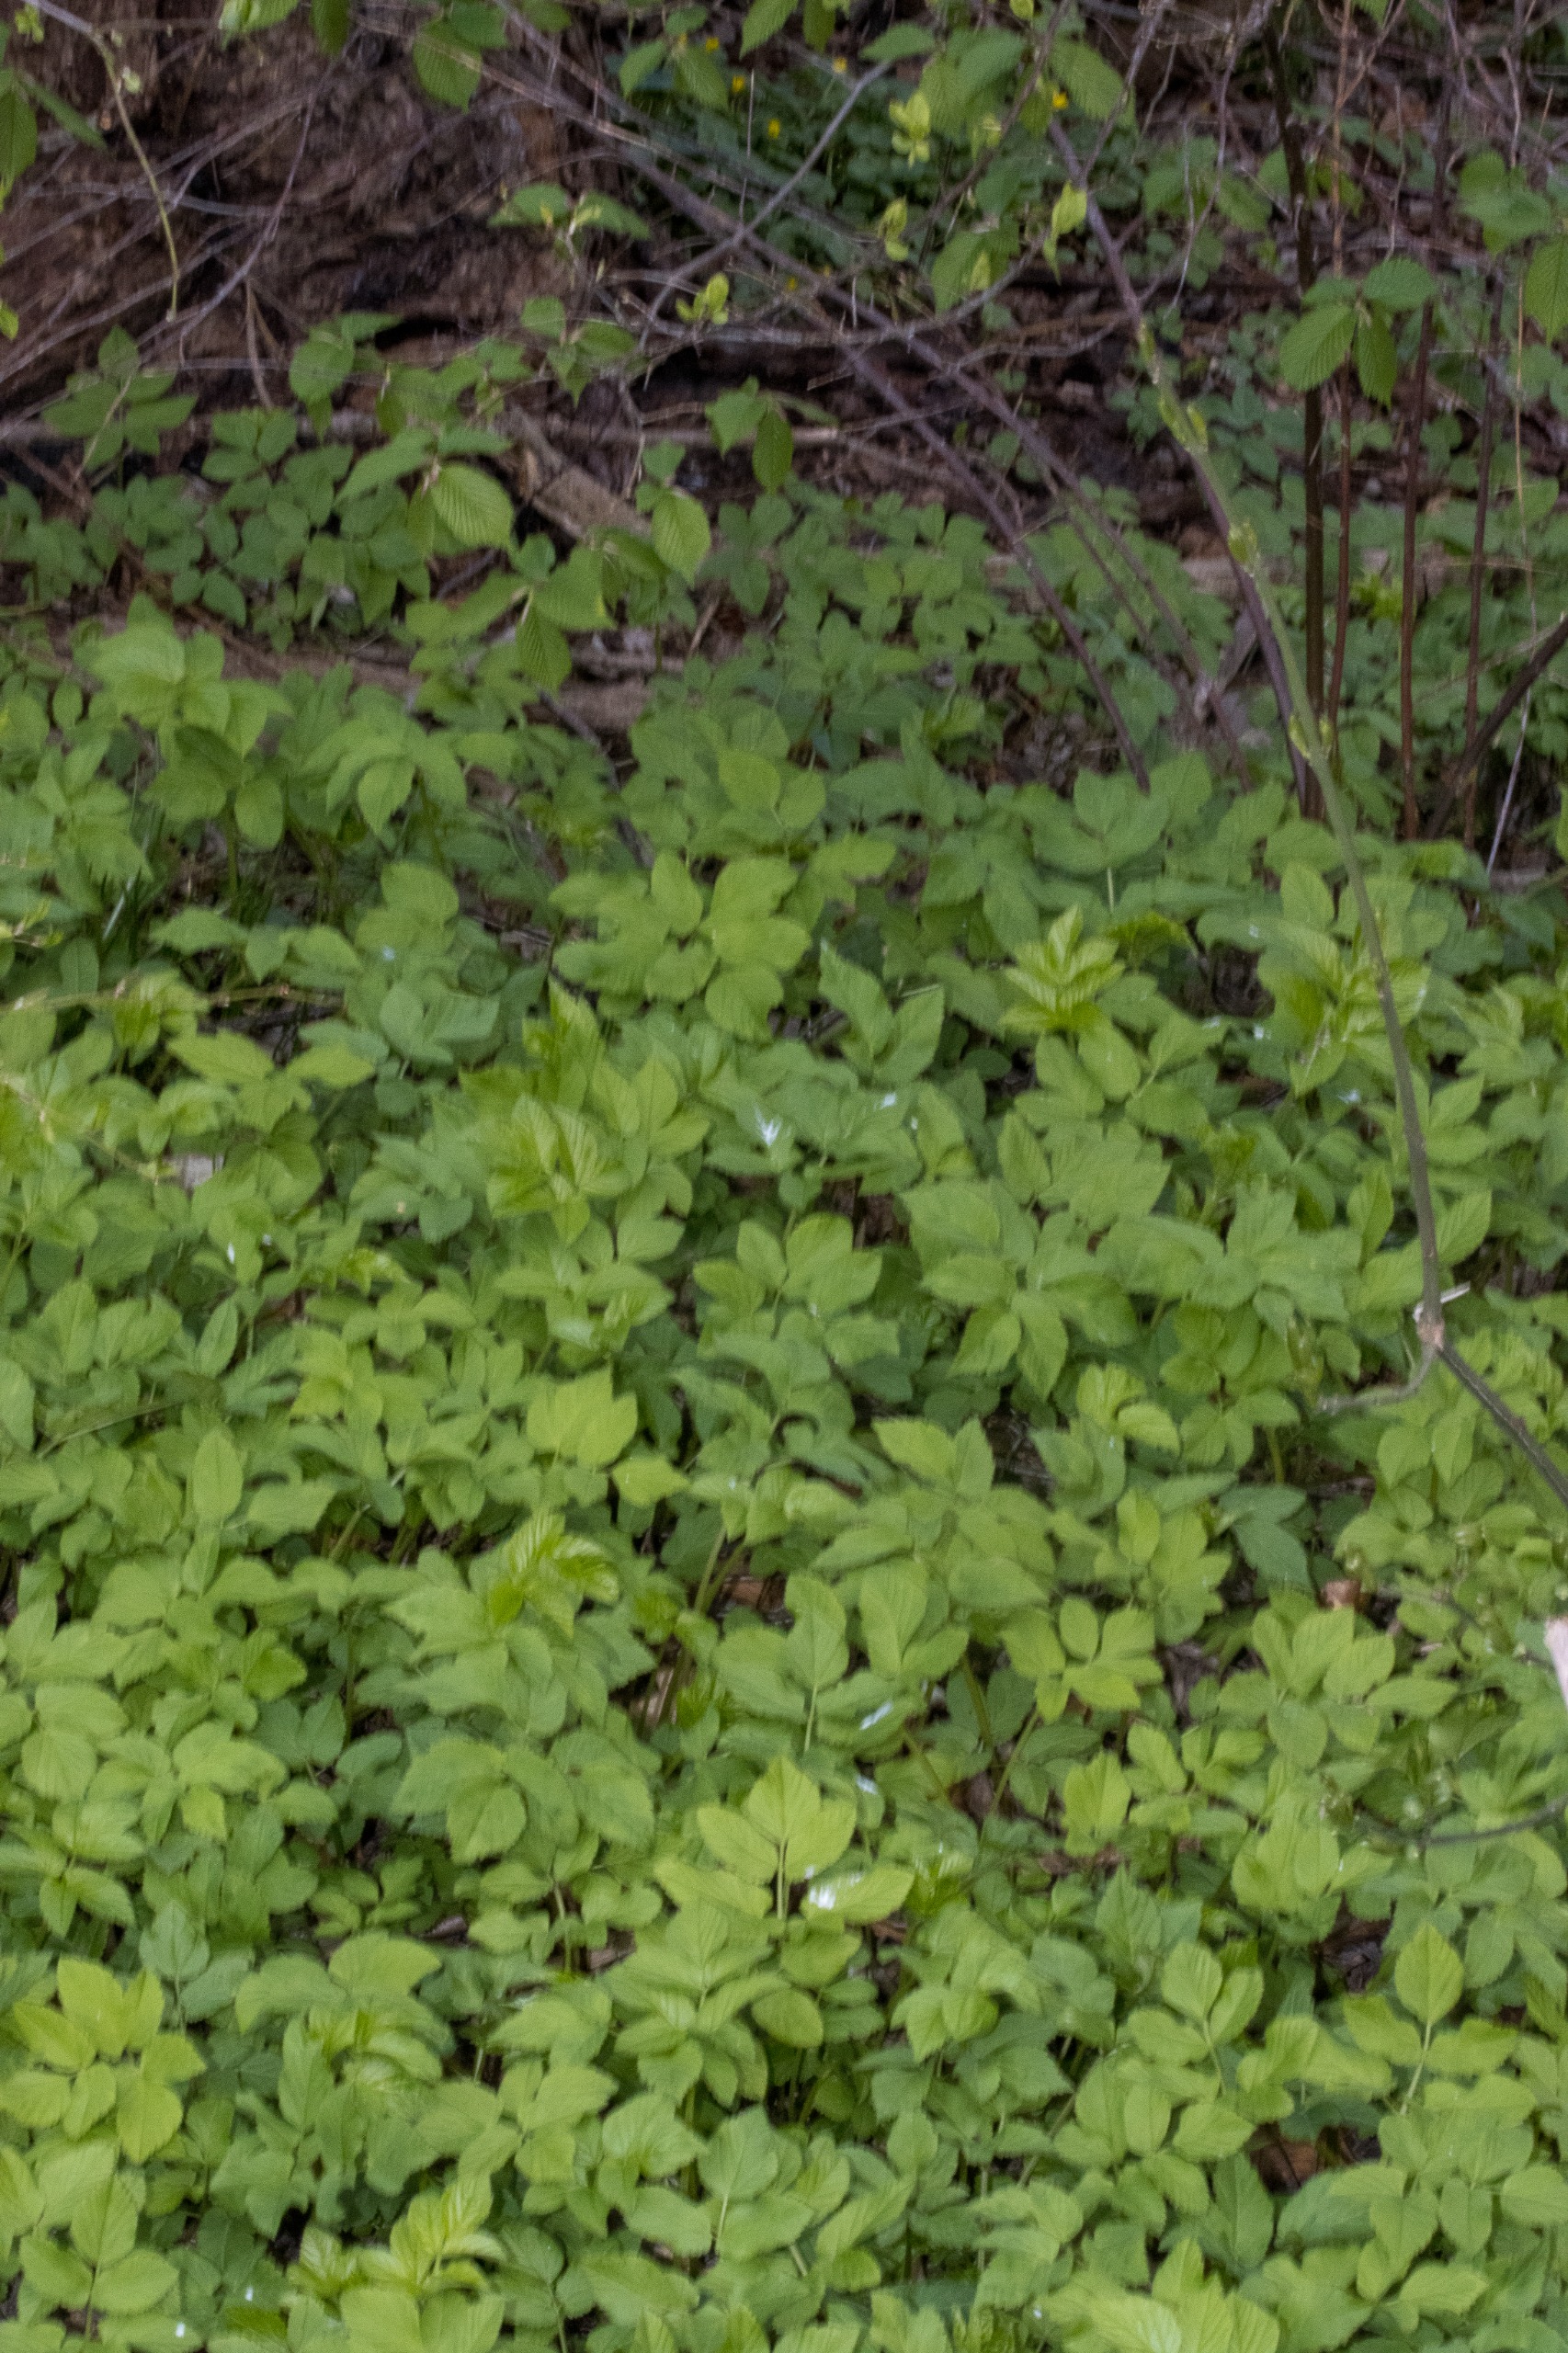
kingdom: Plantae
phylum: Tracheophyta
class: Magnoliopsida
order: Apiales
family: Apiaceae
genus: Aegopodium
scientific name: Aegopodium podagraria
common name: Skvalderkål
